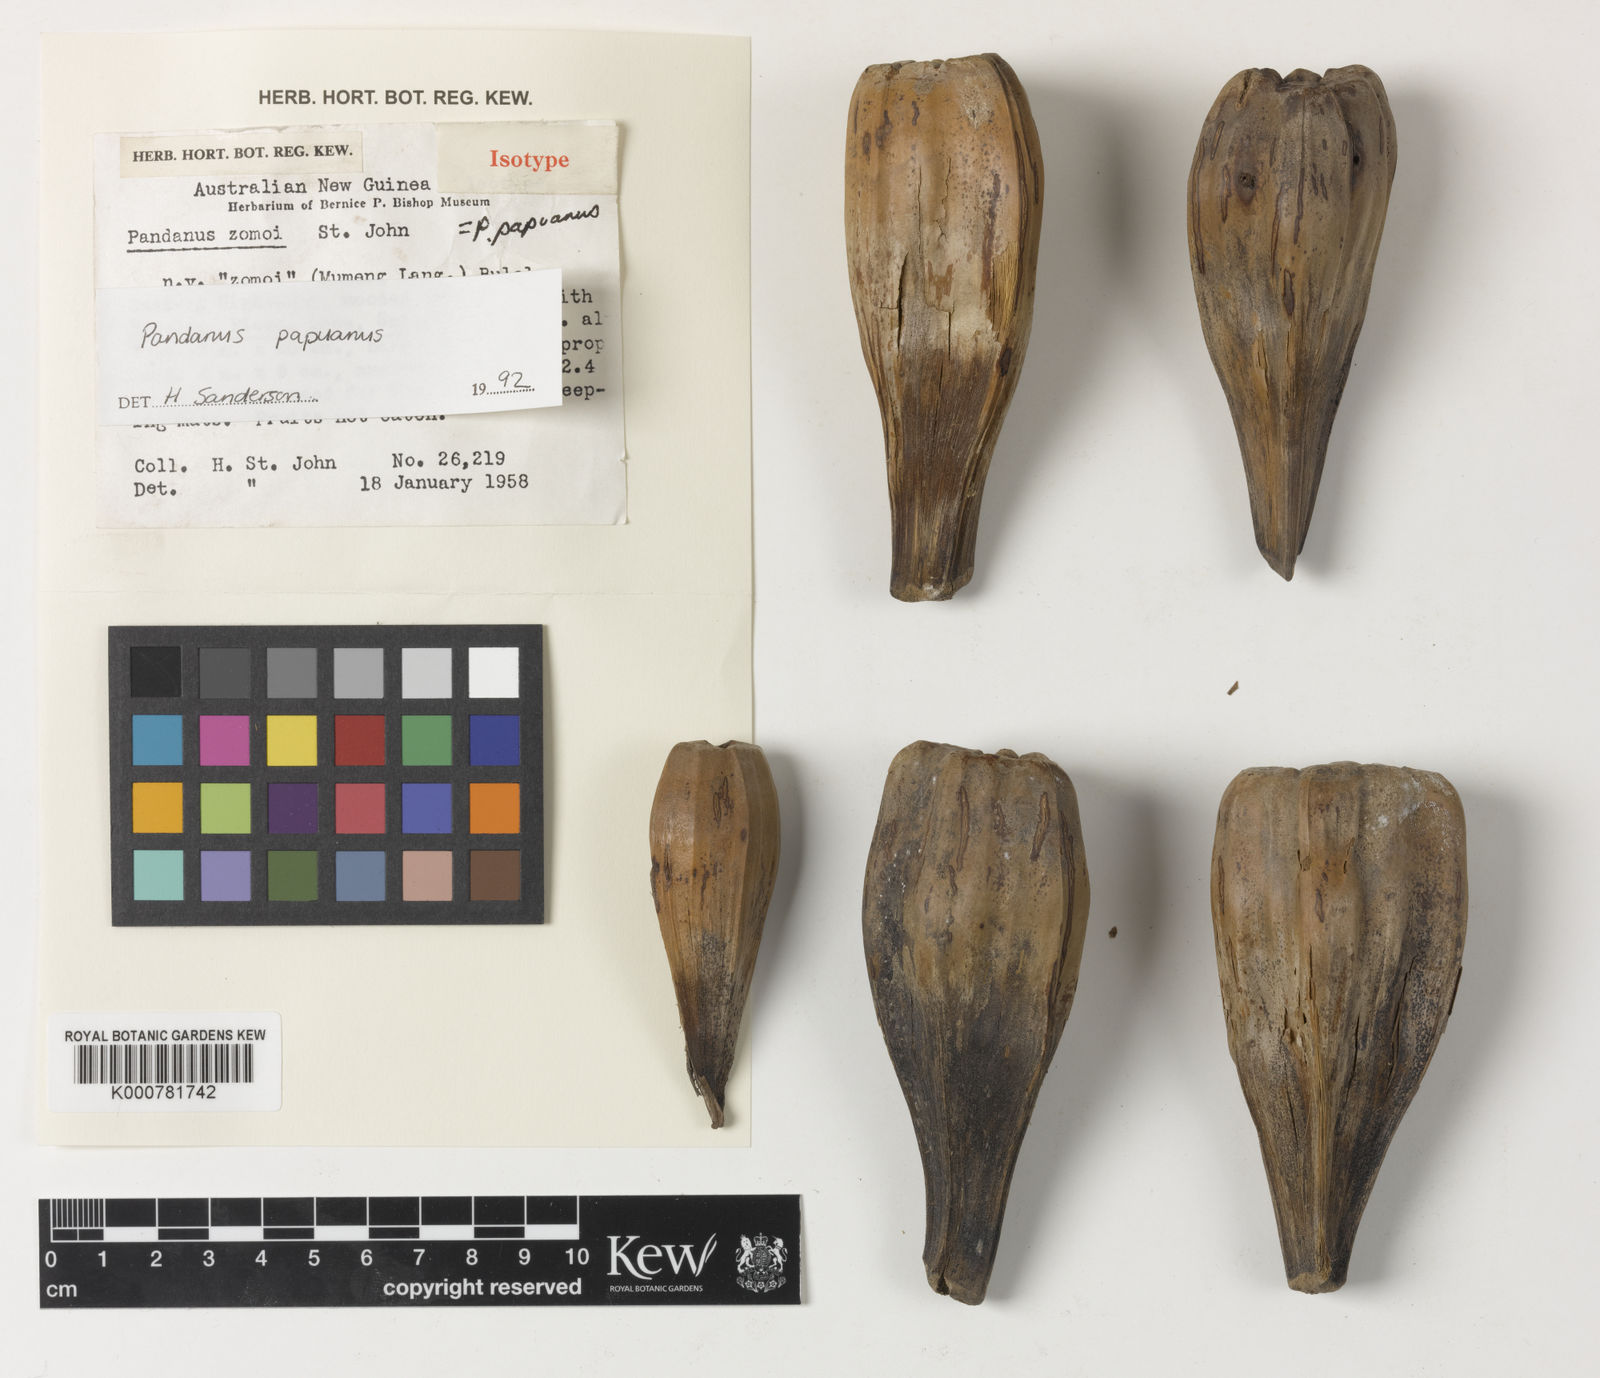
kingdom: Plantae
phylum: Tracheophyta
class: Liliopsida
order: Pandanales
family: Pandanaceae
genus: Pandanus
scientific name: Pandanus papuanus
